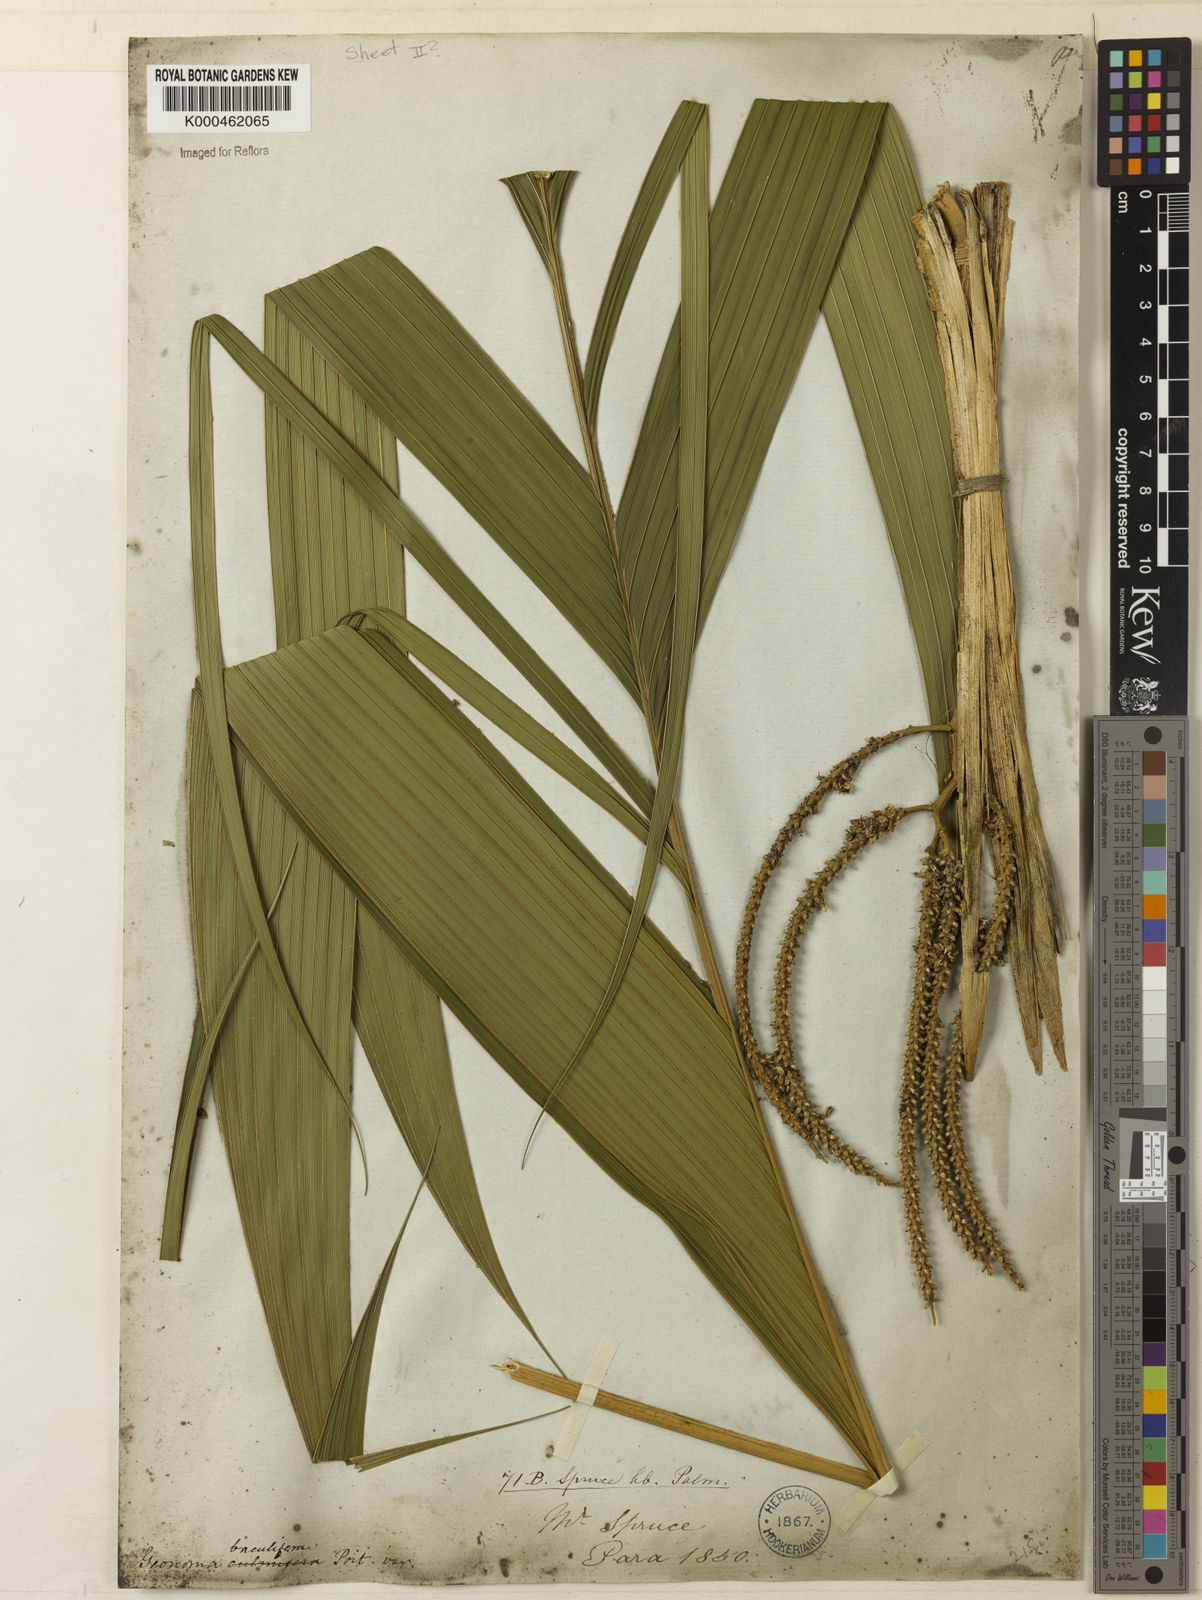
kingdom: Plantae
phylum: Tracheophyta
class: Liliopsida
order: Arecales
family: Arecaceae
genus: Geonoma
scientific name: Geonoma baculifera
